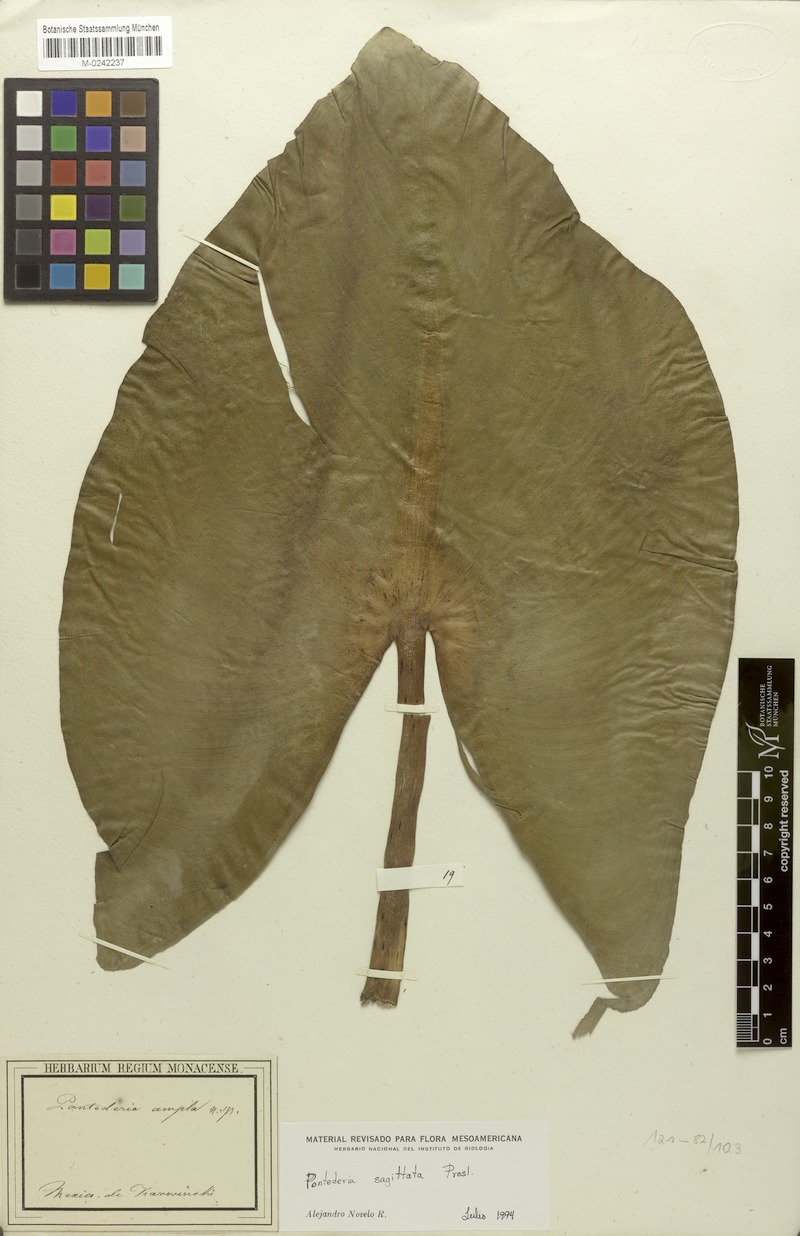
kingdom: Plantae
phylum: Tracheophyta
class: Liliopsida
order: Commelinales
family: Pontederiaceae
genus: Pontederia
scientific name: Pontederia sagittata
